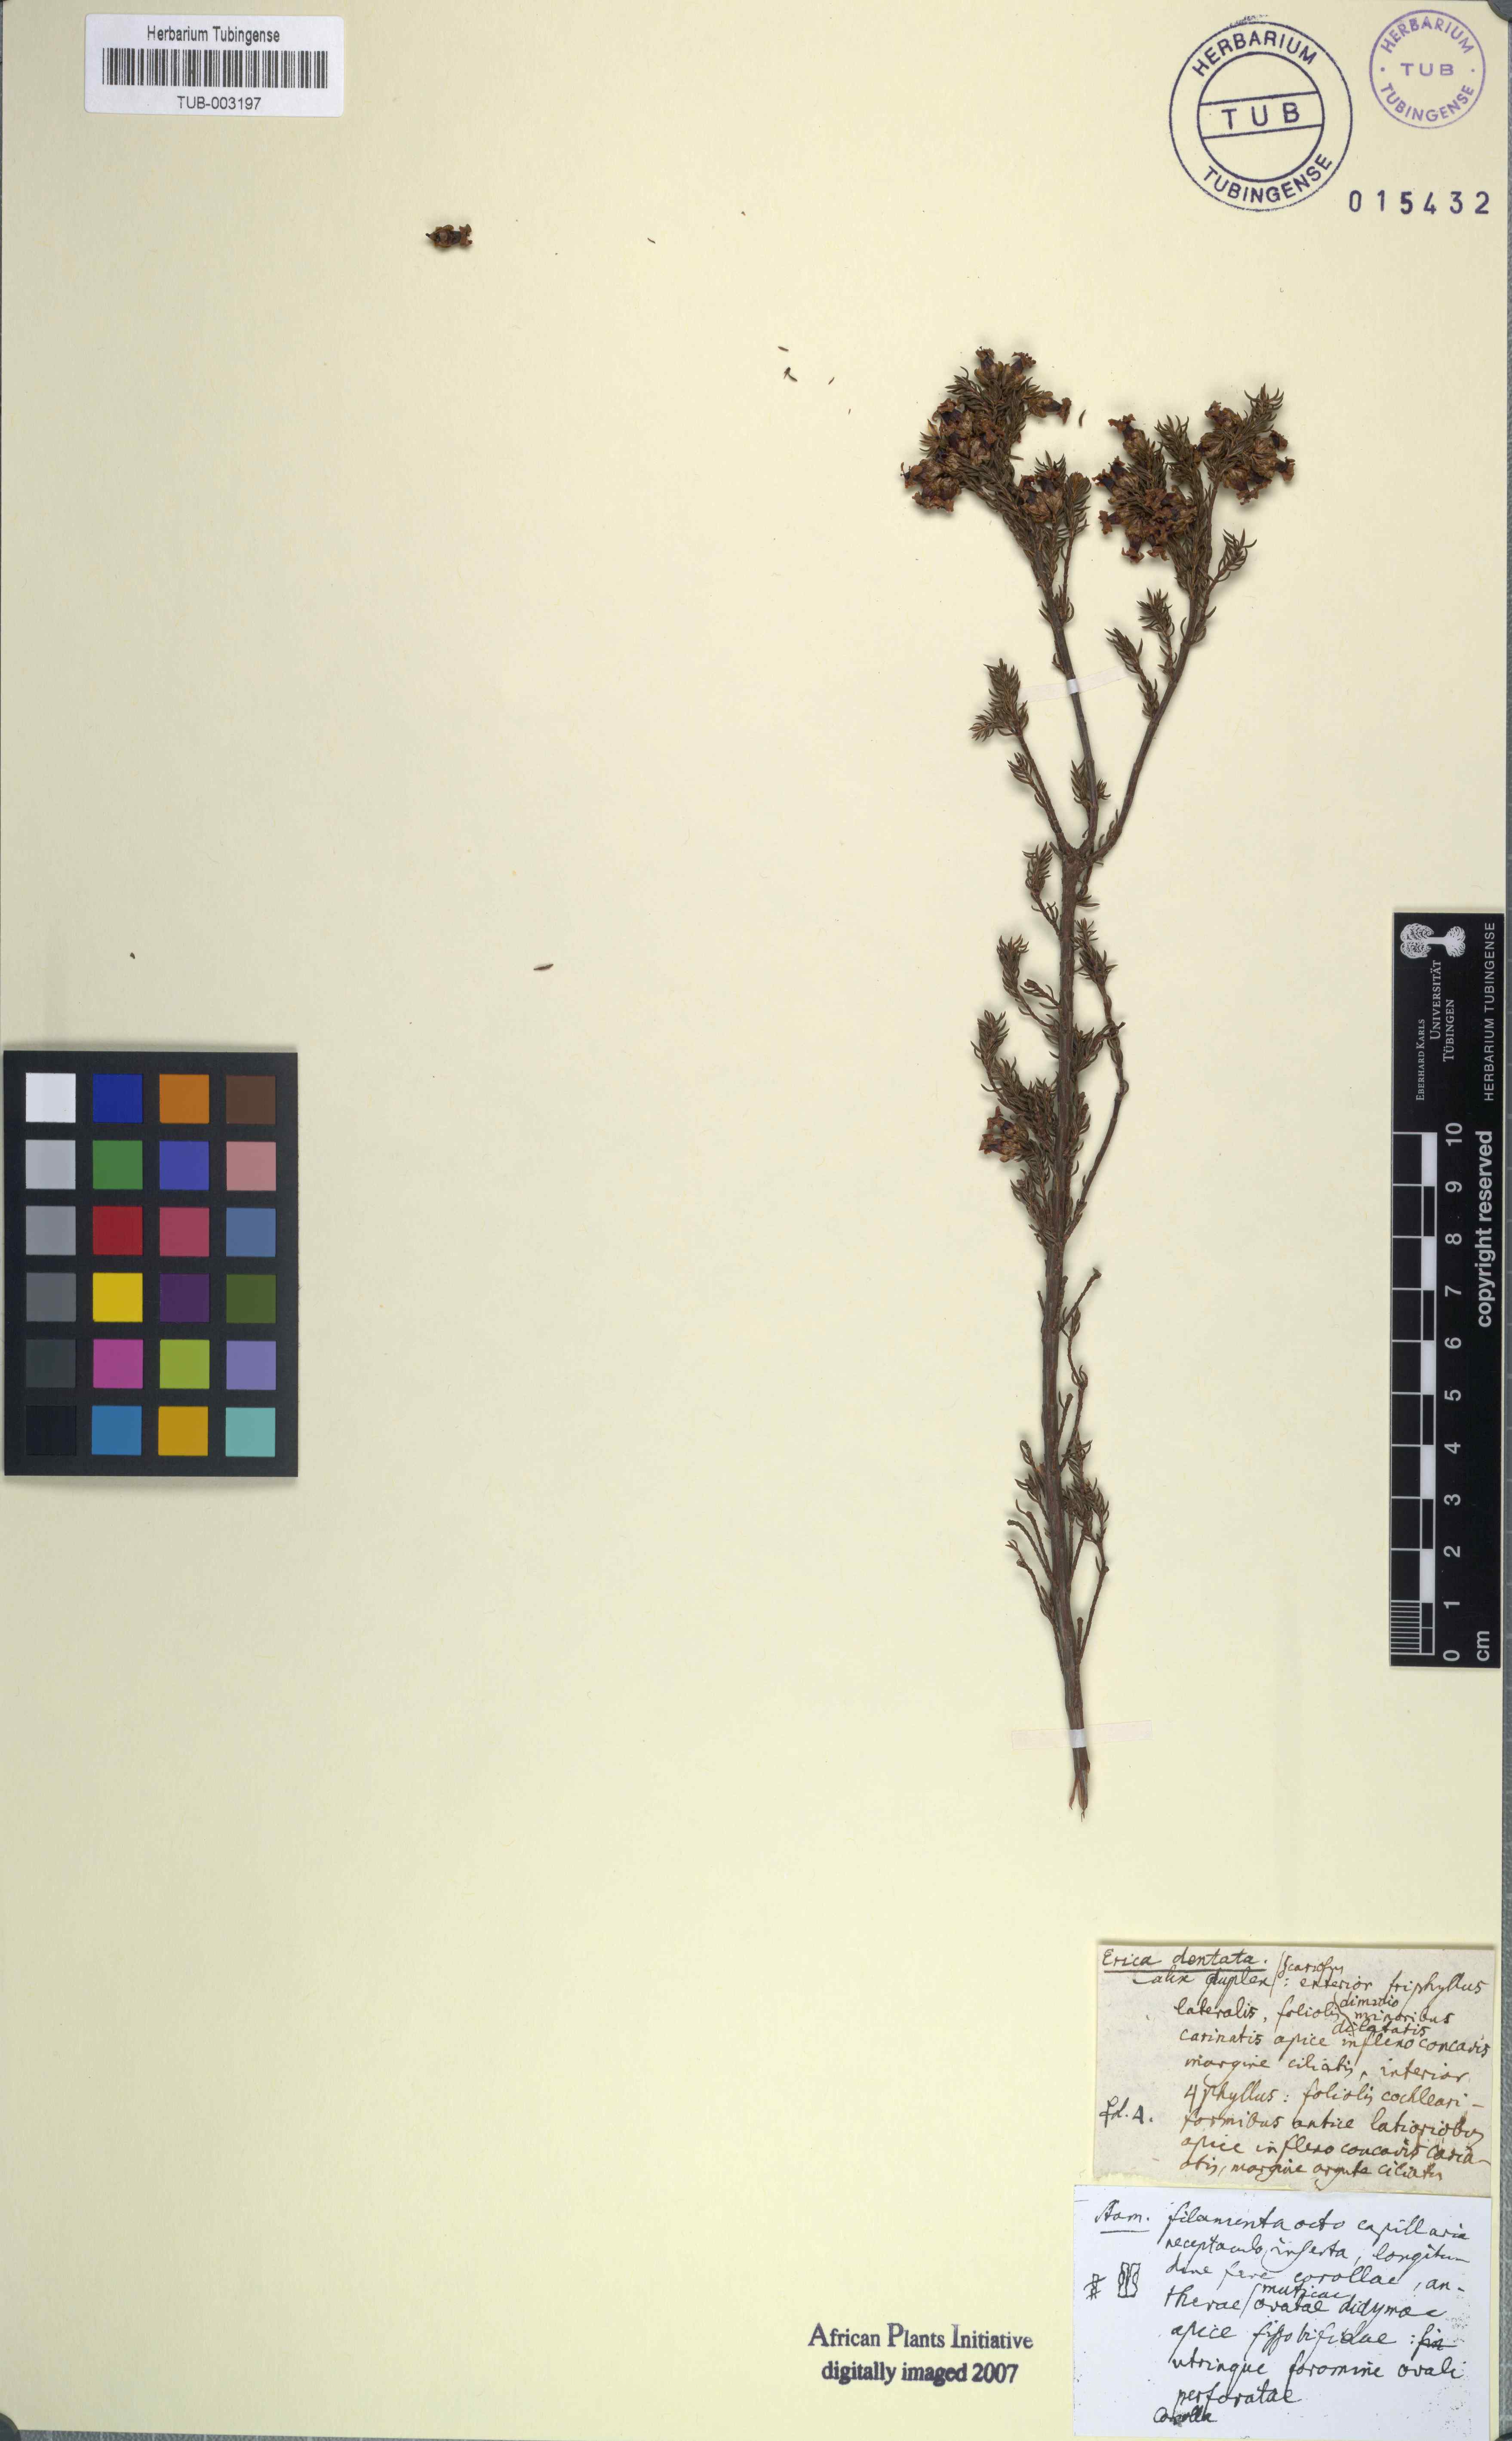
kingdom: Plantae
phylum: Tracheophyta
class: Magnoliopsida
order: Ericales
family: Ericaceae
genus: Erica
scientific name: Erica dentata
